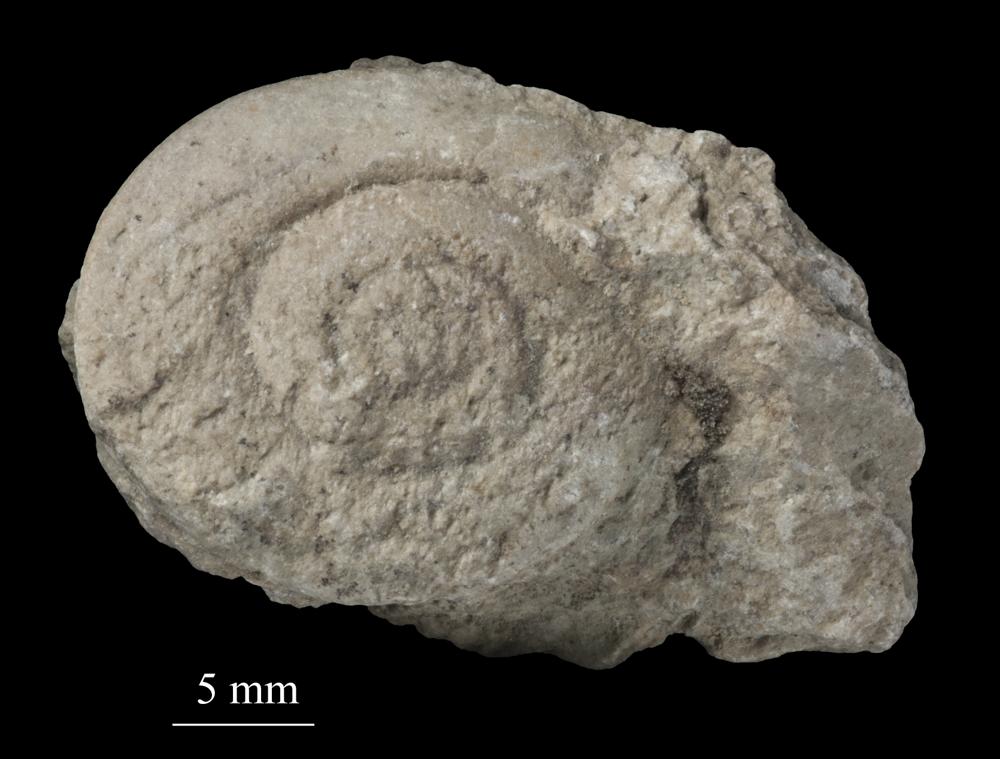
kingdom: Animalia
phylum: Mollusca
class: Gastropoda
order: Pleurotomariida
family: Pleurotomariidae
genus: Pleurotomaria
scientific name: Pleurotomaria
